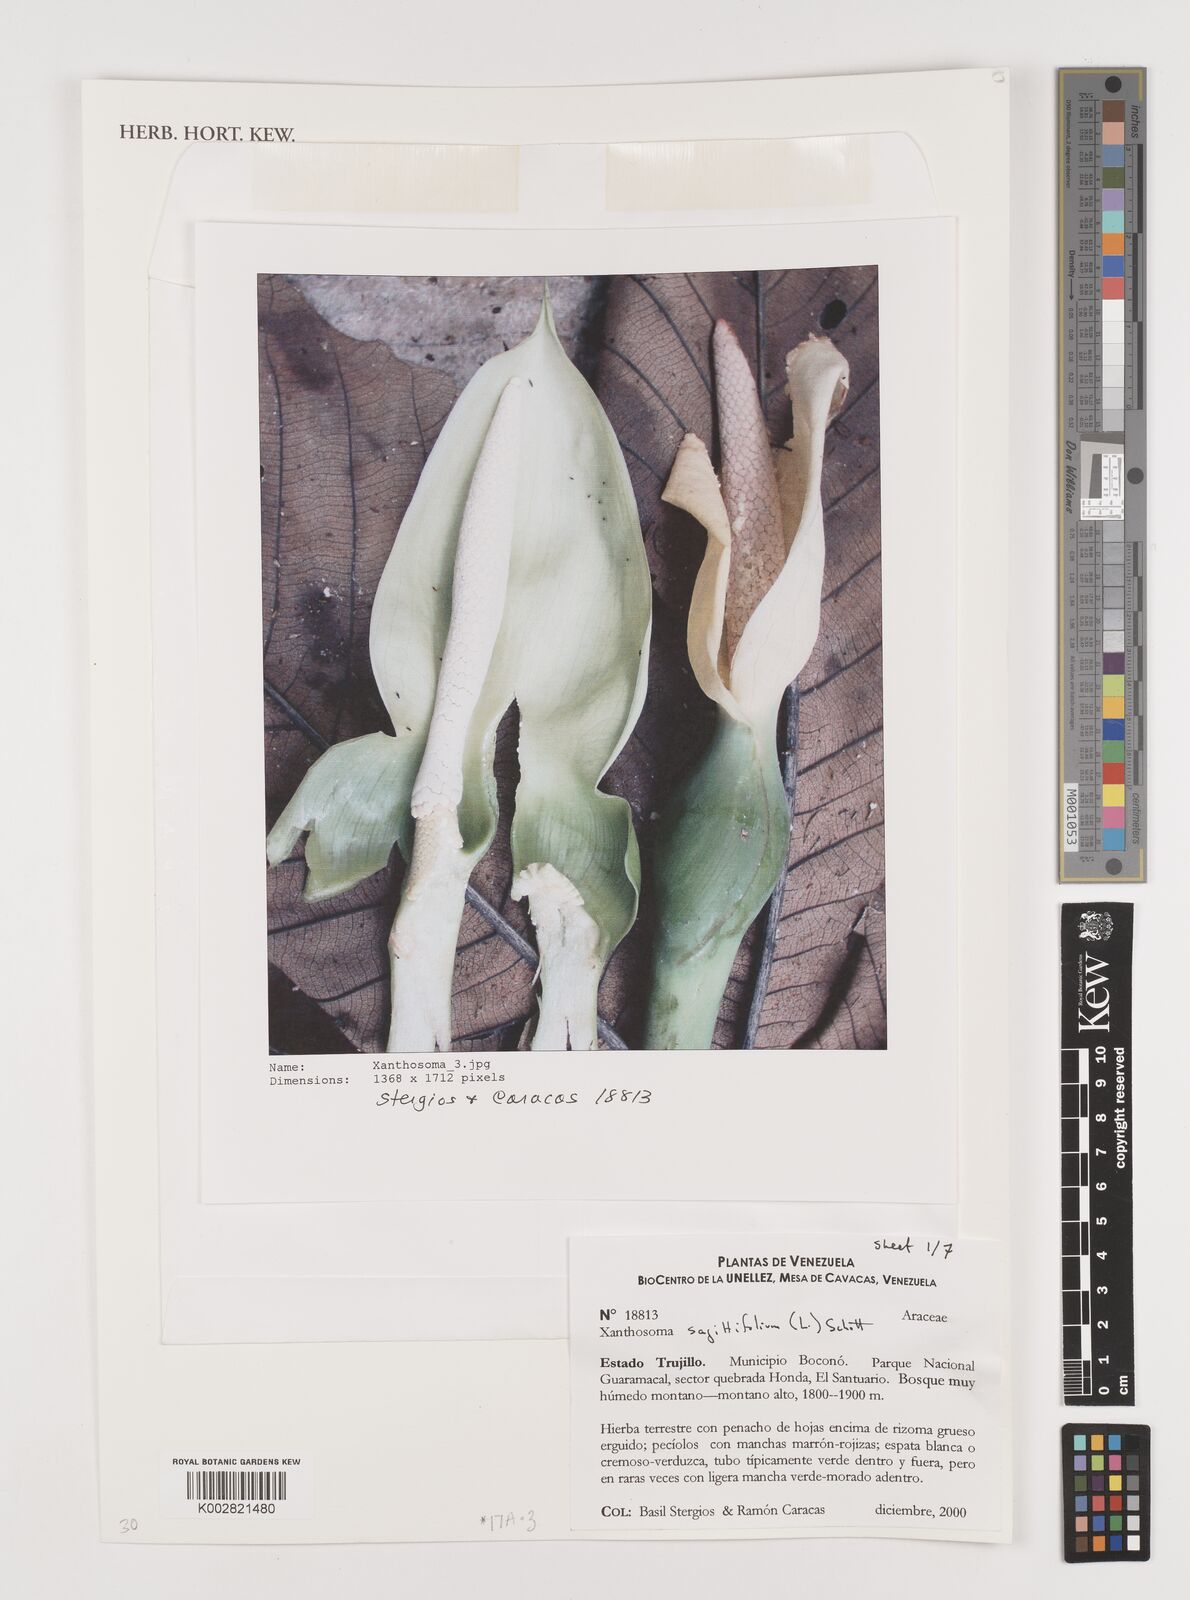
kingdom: Plantae
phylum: Tracheophyta
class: Liliopsida
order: Alismatales
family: Araceae
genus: Xanthosoma
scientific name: Xanthosoma sagittifolium
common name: Arrowleaf elephant's ear
